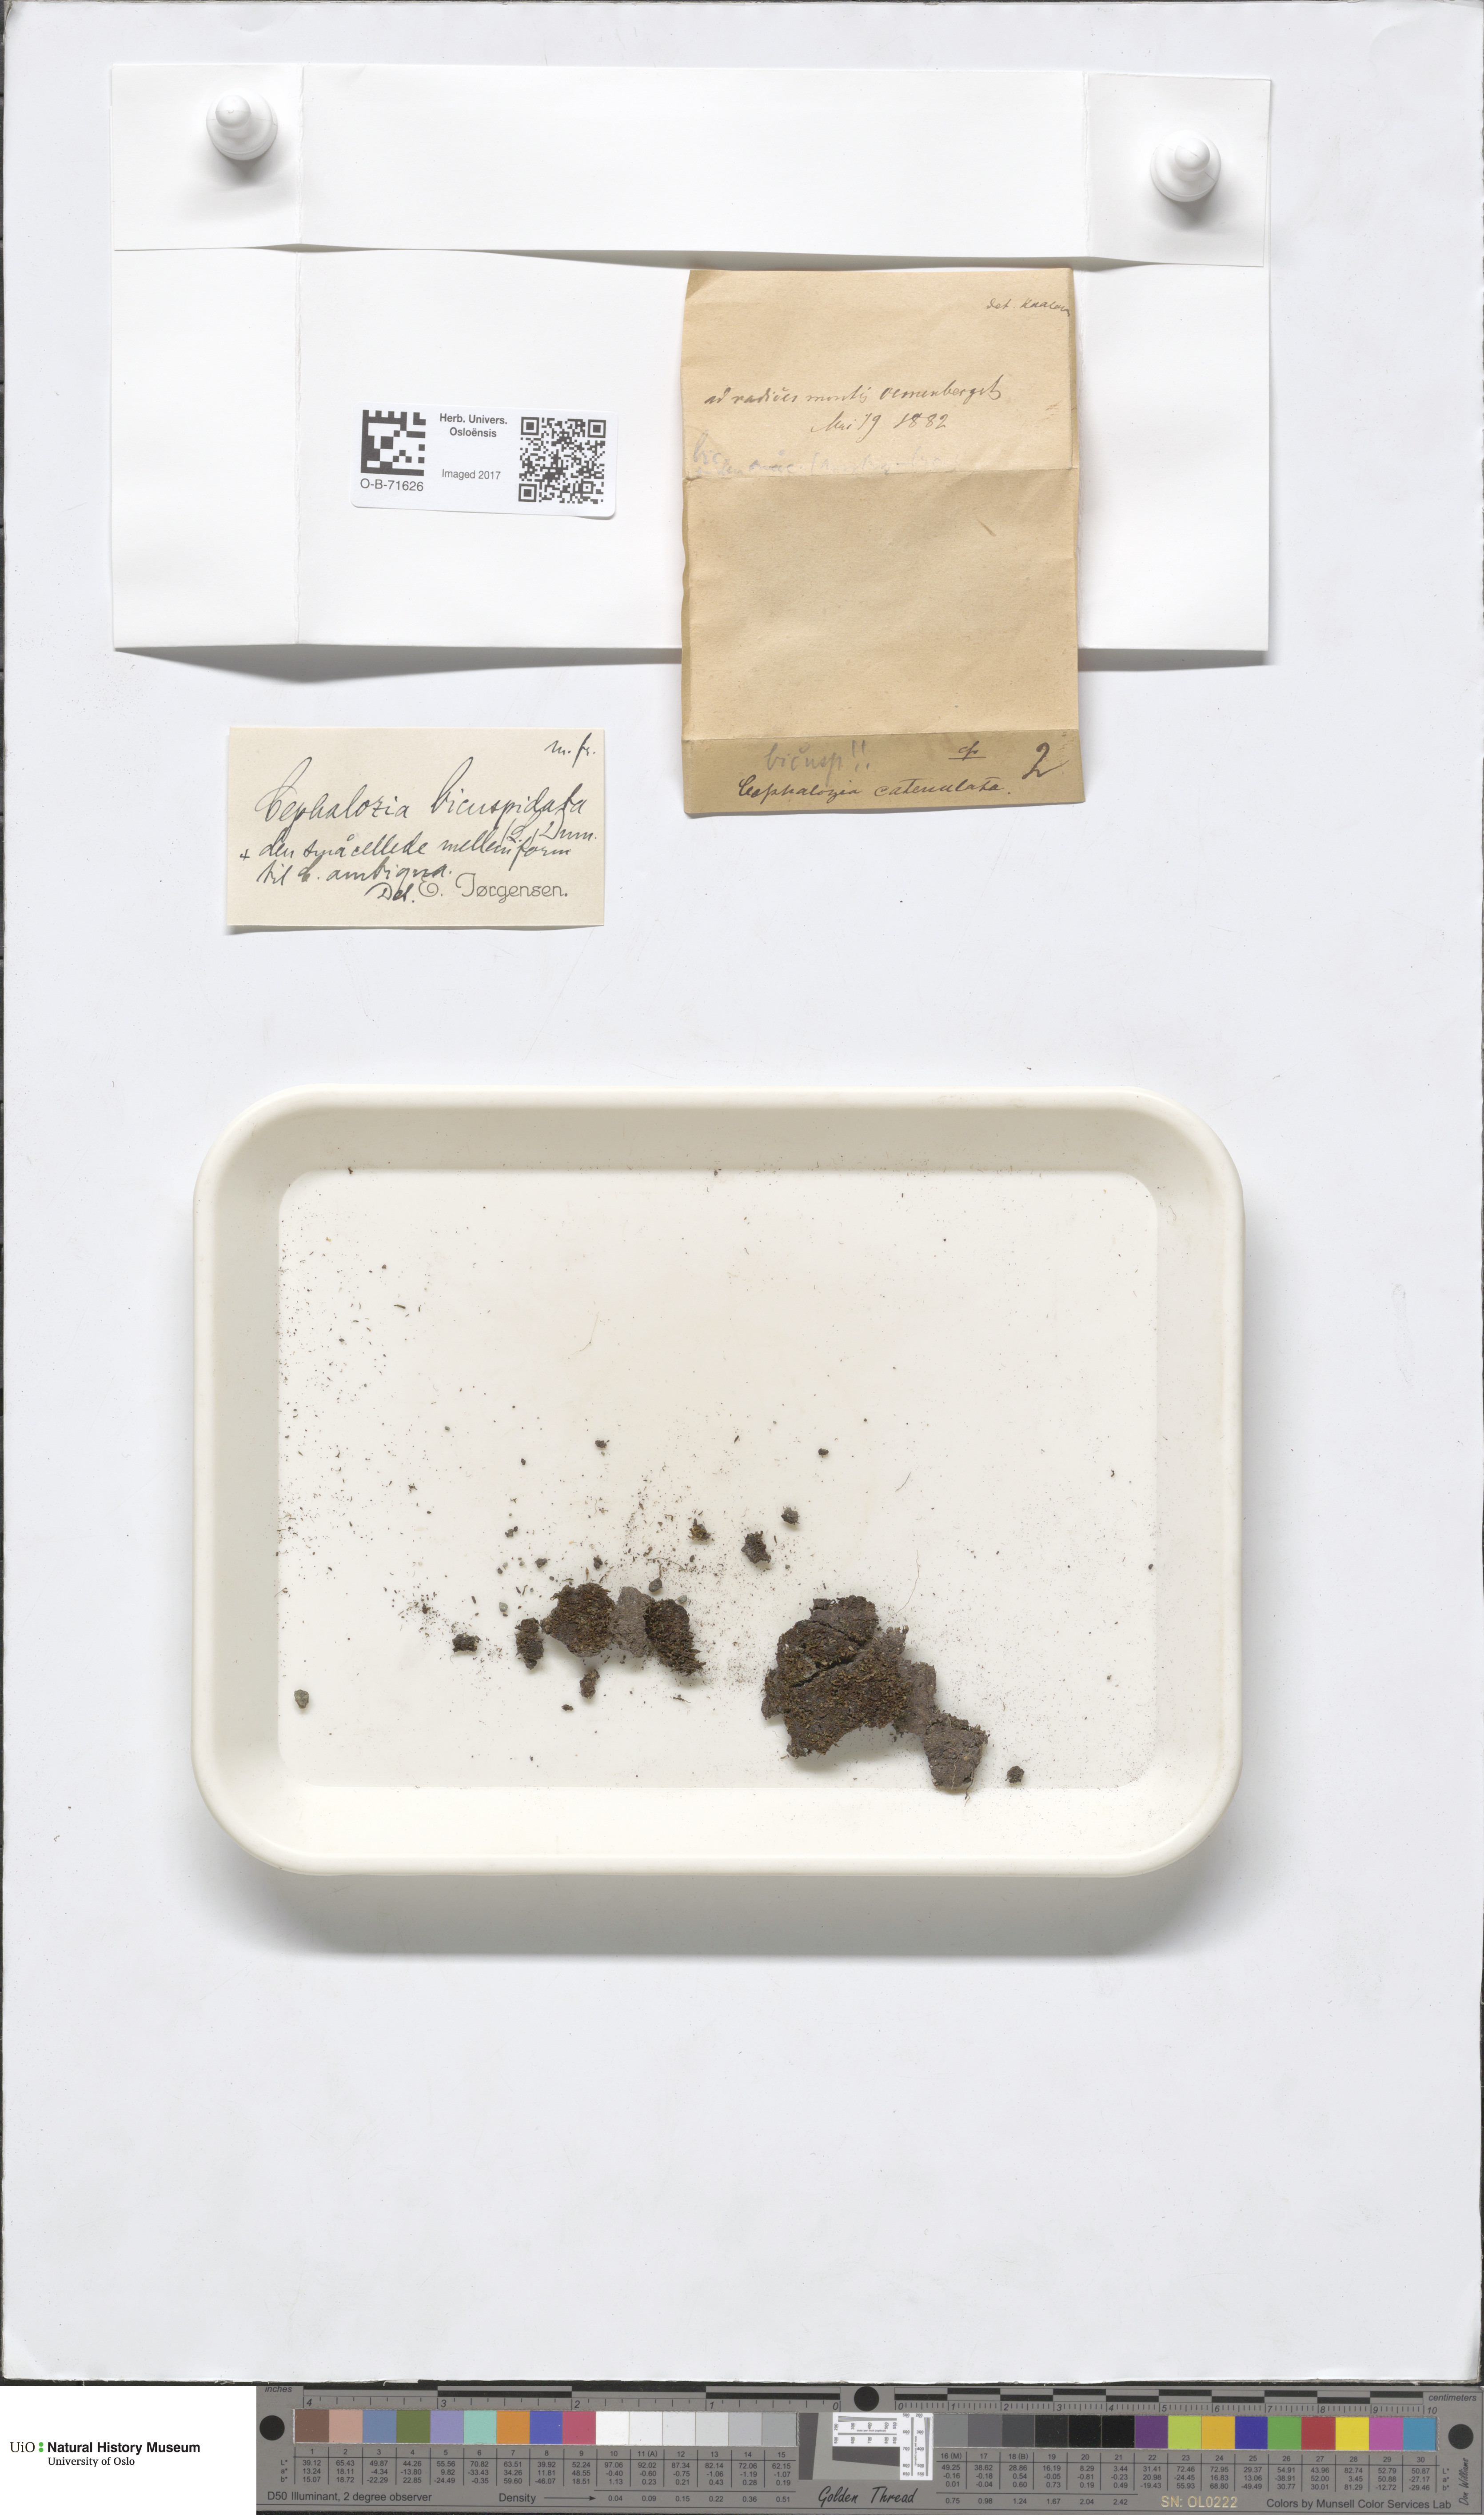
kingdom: Plantae
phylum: Marchantiophyta
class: Jungermanniopsida
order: Jungermanniales
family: Cephaloziaceae
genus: Cephalozia
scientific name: Cephalozia bicuspidata
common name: Two-horned pincerwort
